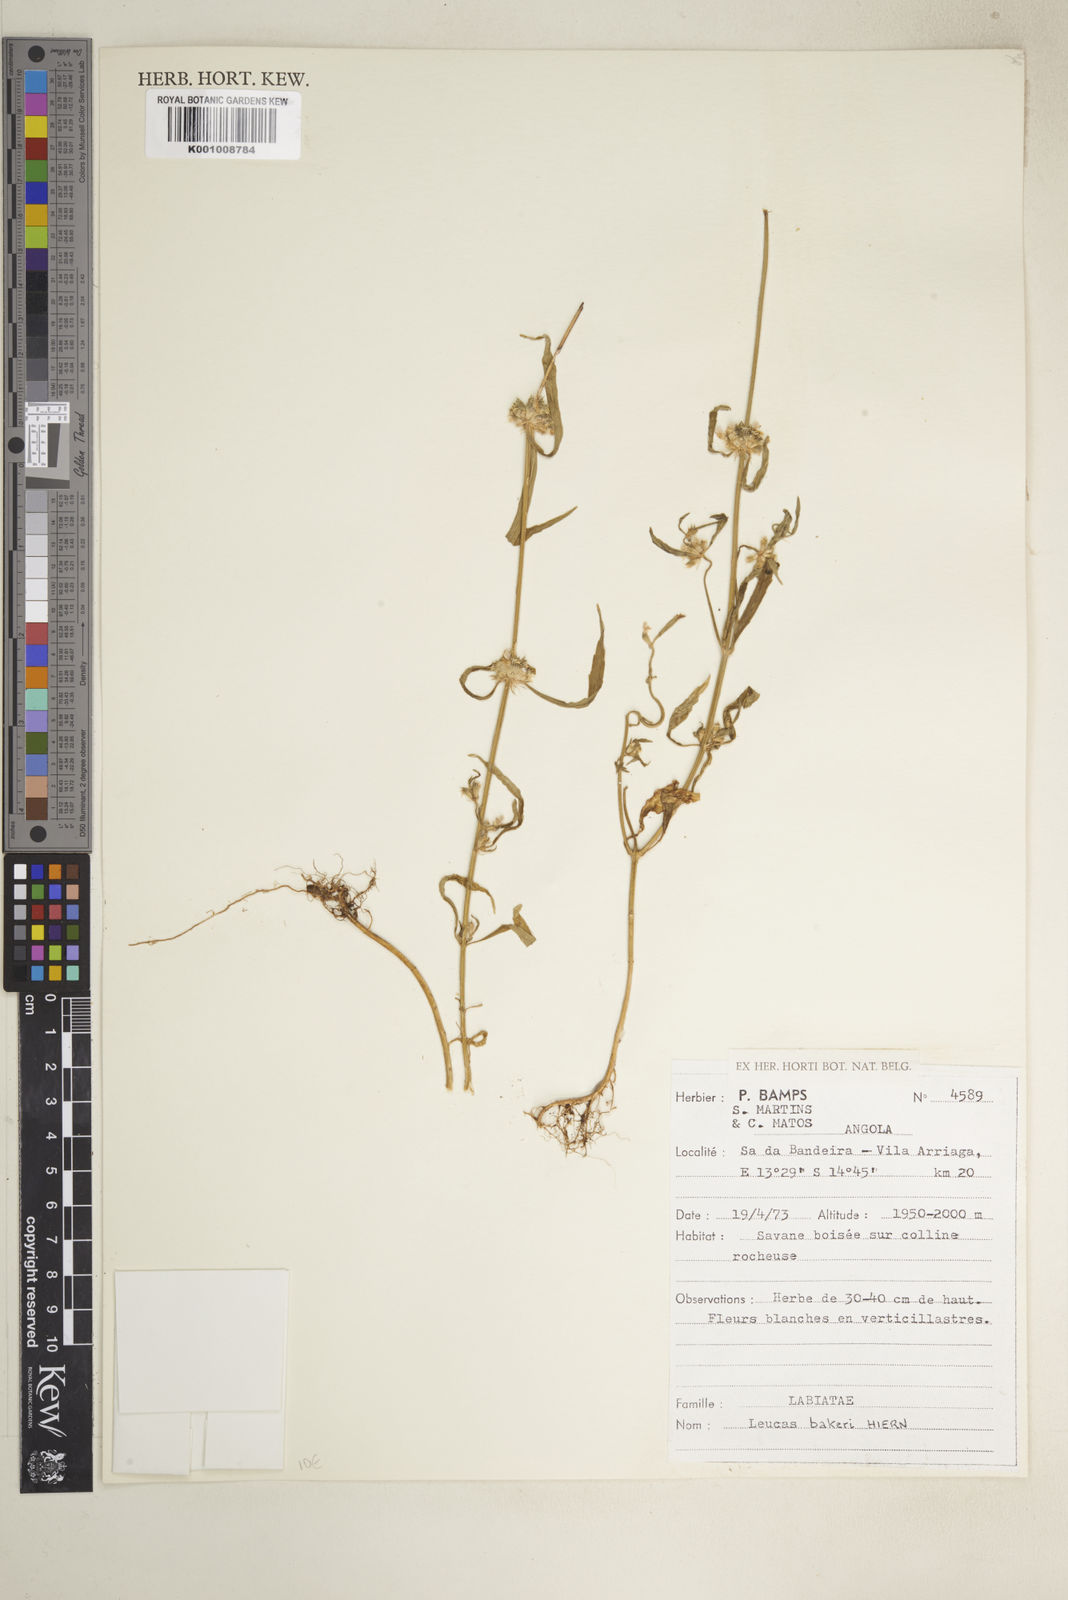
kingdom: Plantae
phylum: Tracheophyta
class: Magnoliopsida
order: Lamiales
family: Lamiaceae
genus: Leucas
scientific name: Leucas bakeri
